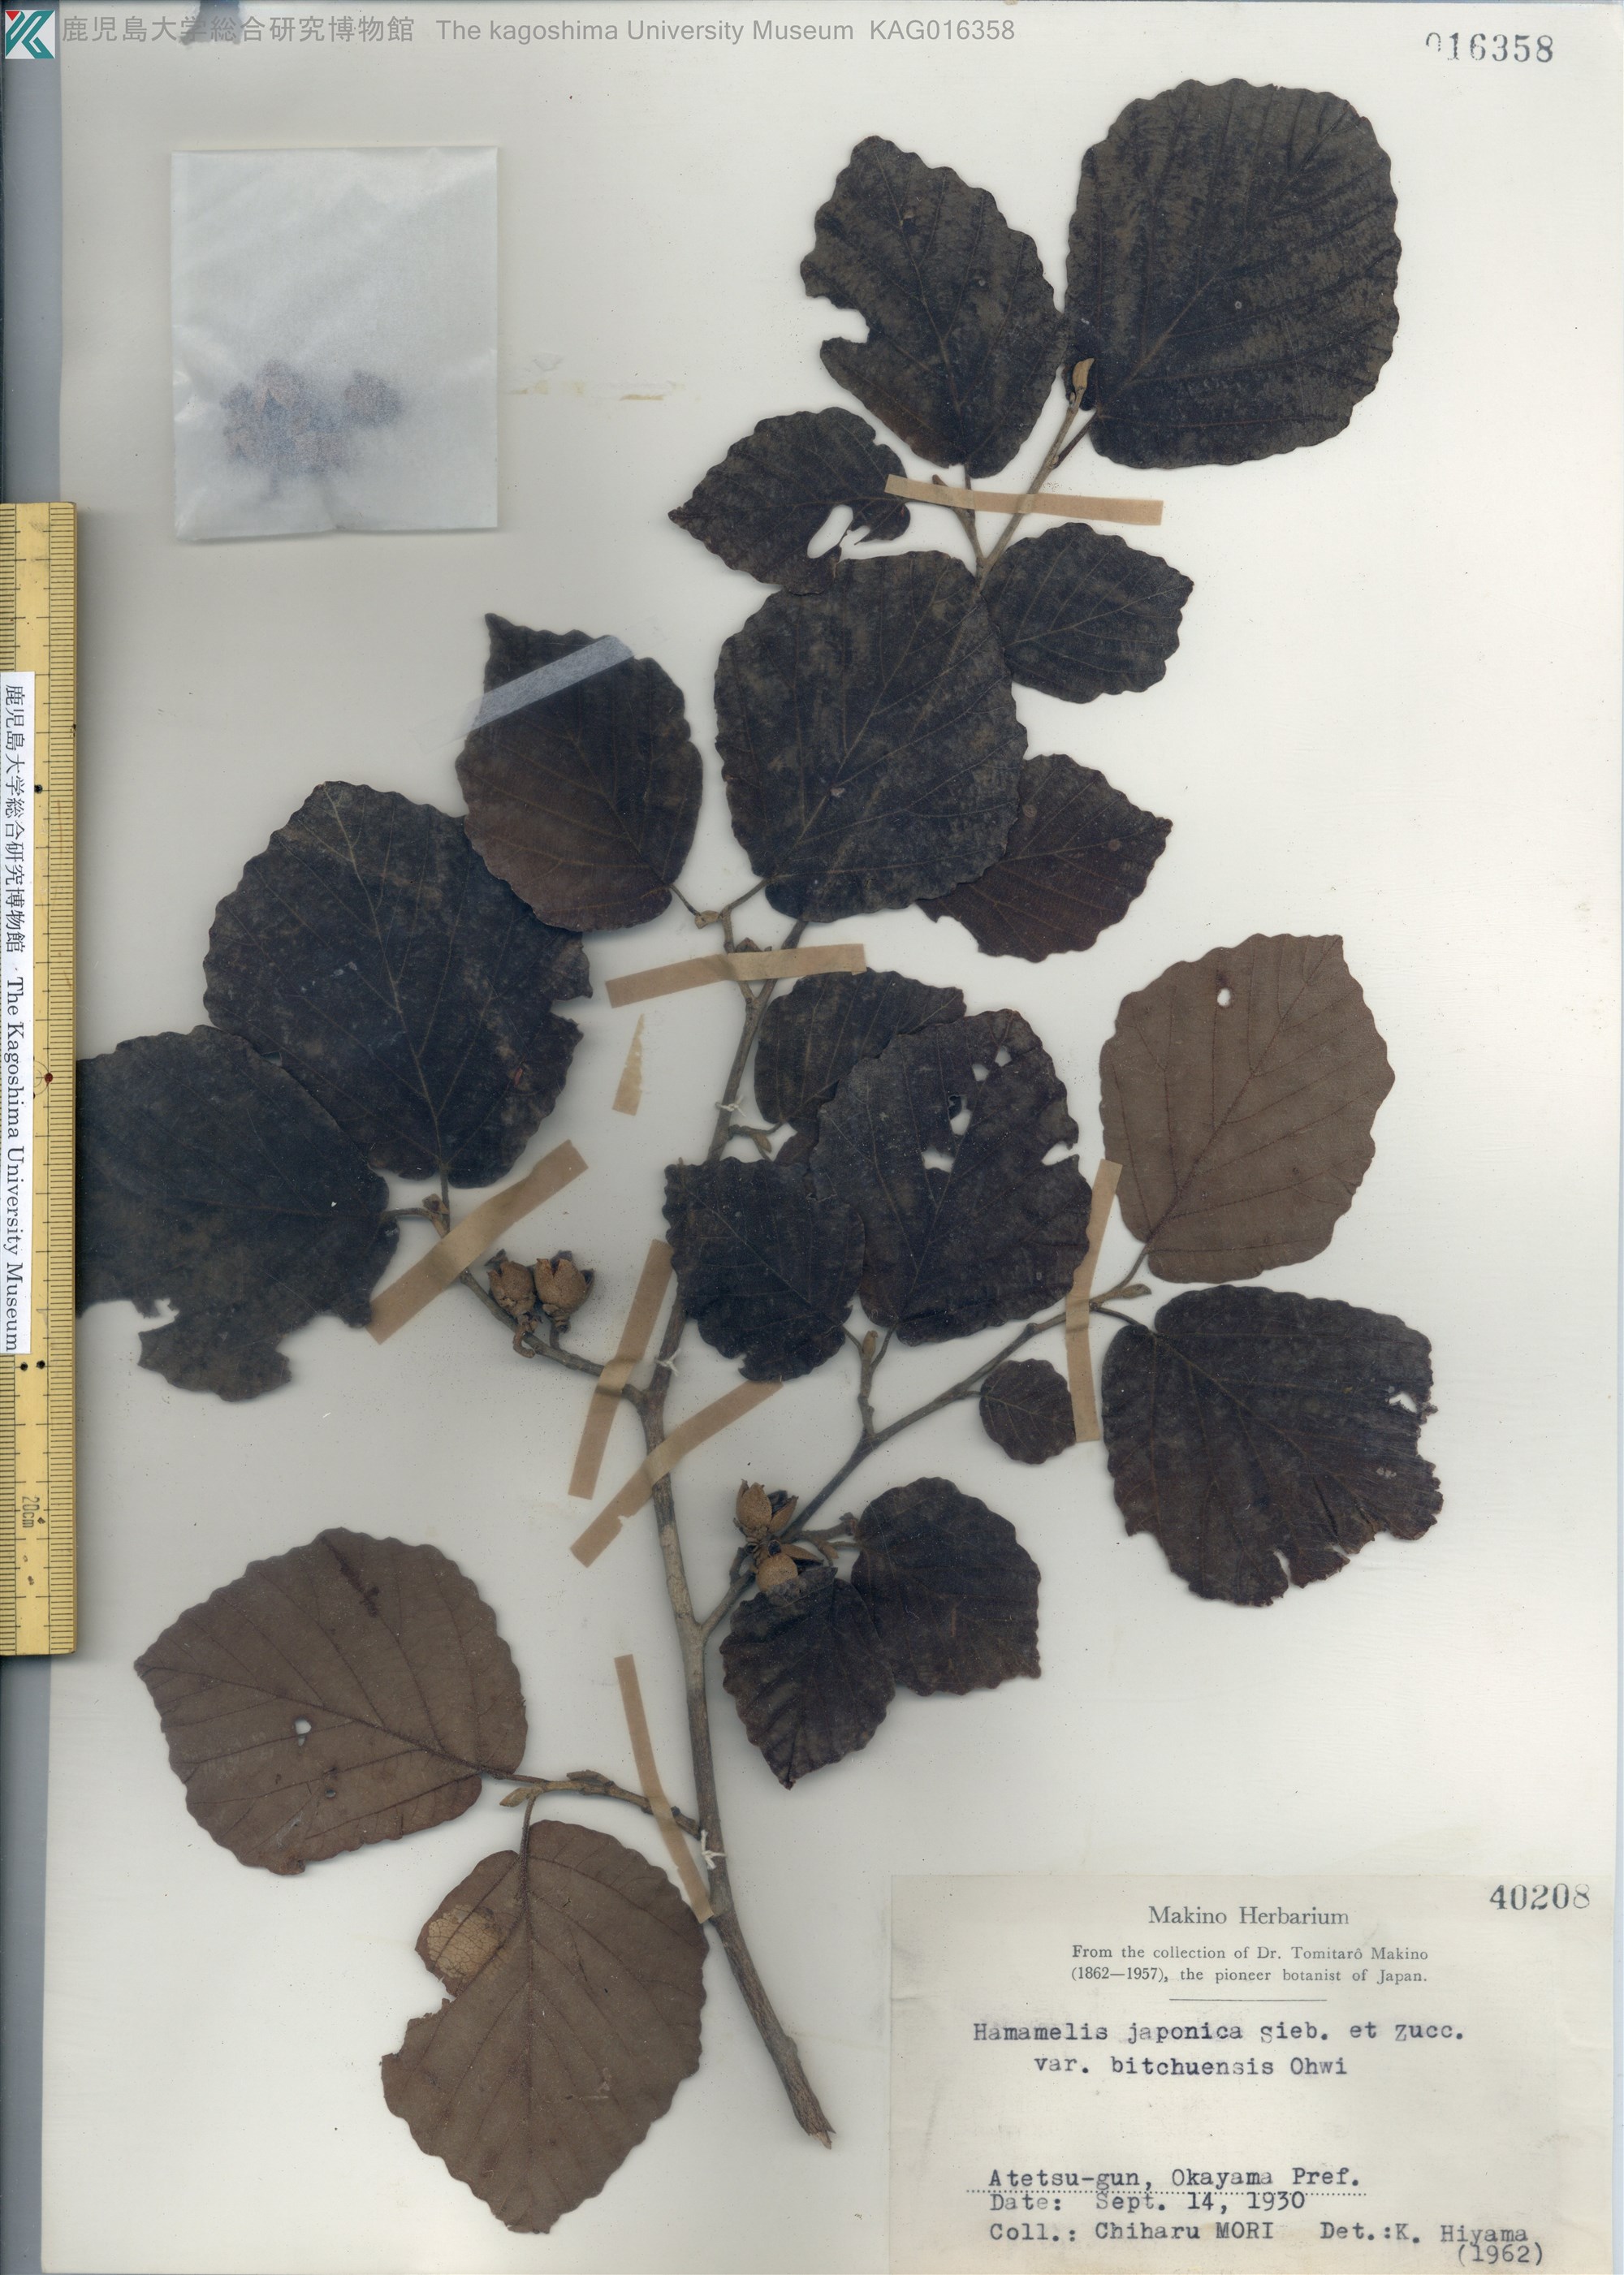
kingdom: Plantae
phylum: Tracheophyta
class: Magnoliopsida
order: Saxifragales
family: Hamamelidaceae
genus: Hamamelis
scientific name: Hamamelis japonica
